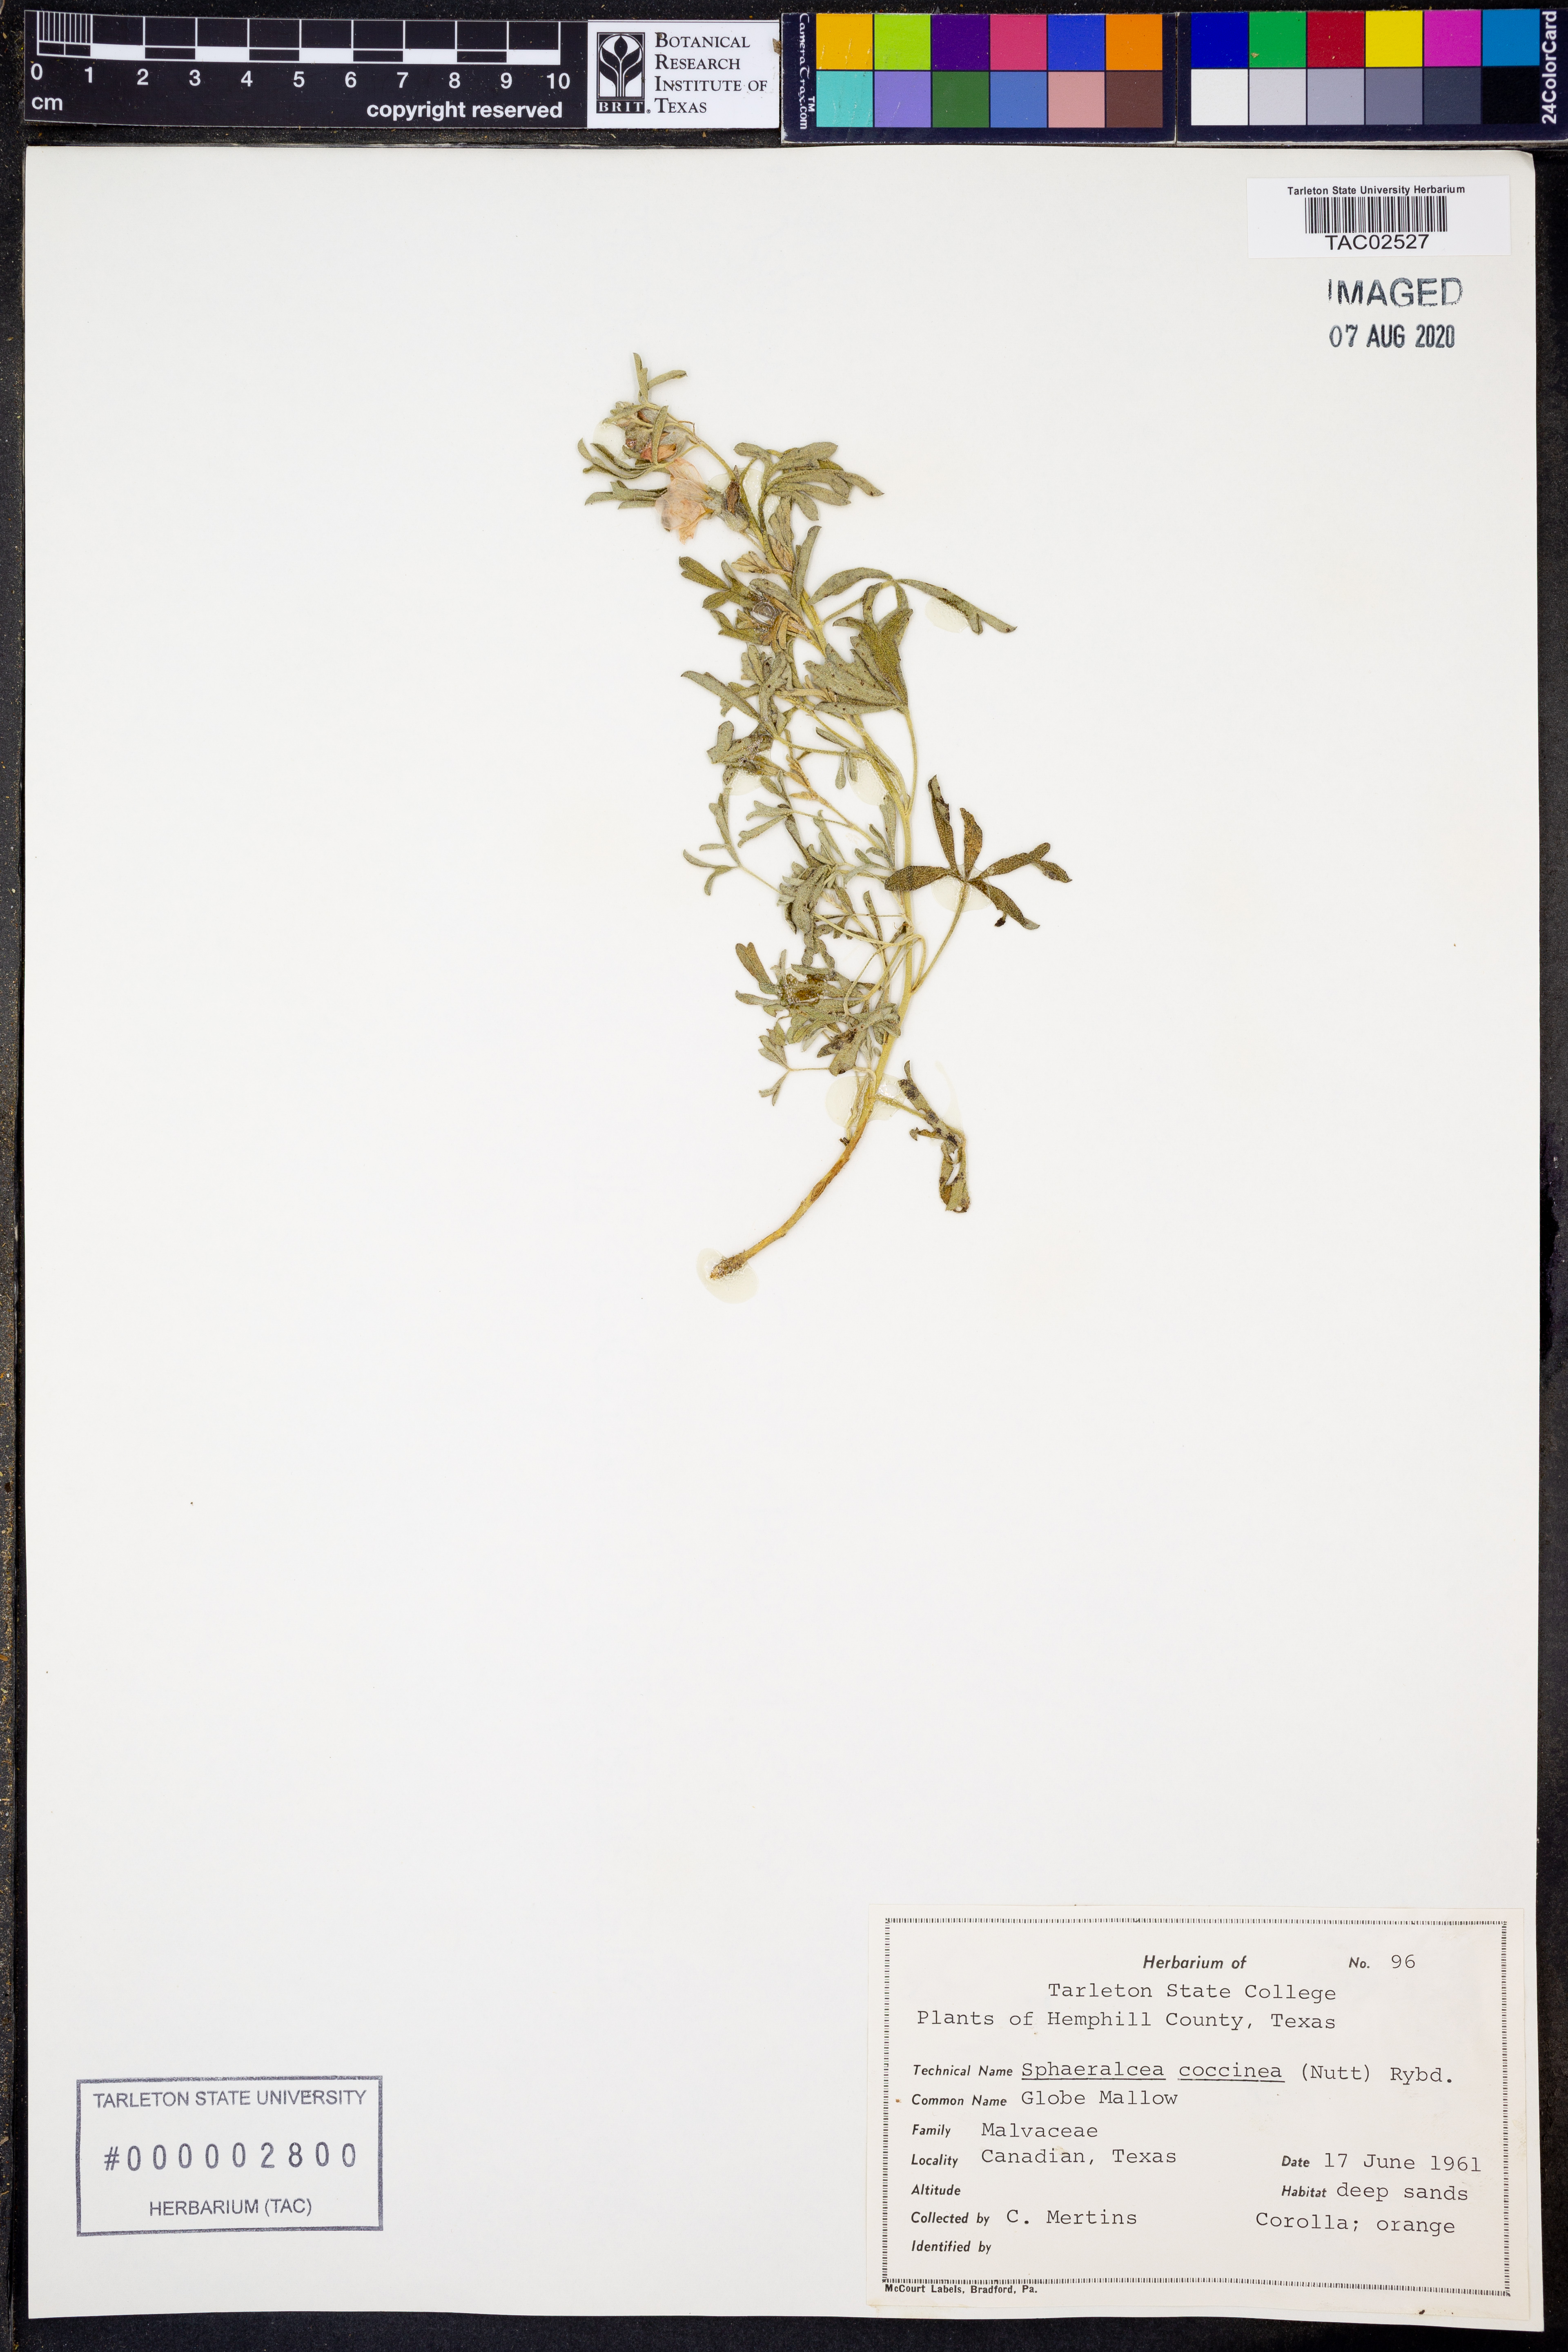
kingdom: Plantae
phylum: Tracheophyta
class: Magnoliopsida
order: Malvales
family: Malvaceae
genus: Sphaeralcea
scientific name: Sphaeralcea coccinea
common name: Moss-rose
